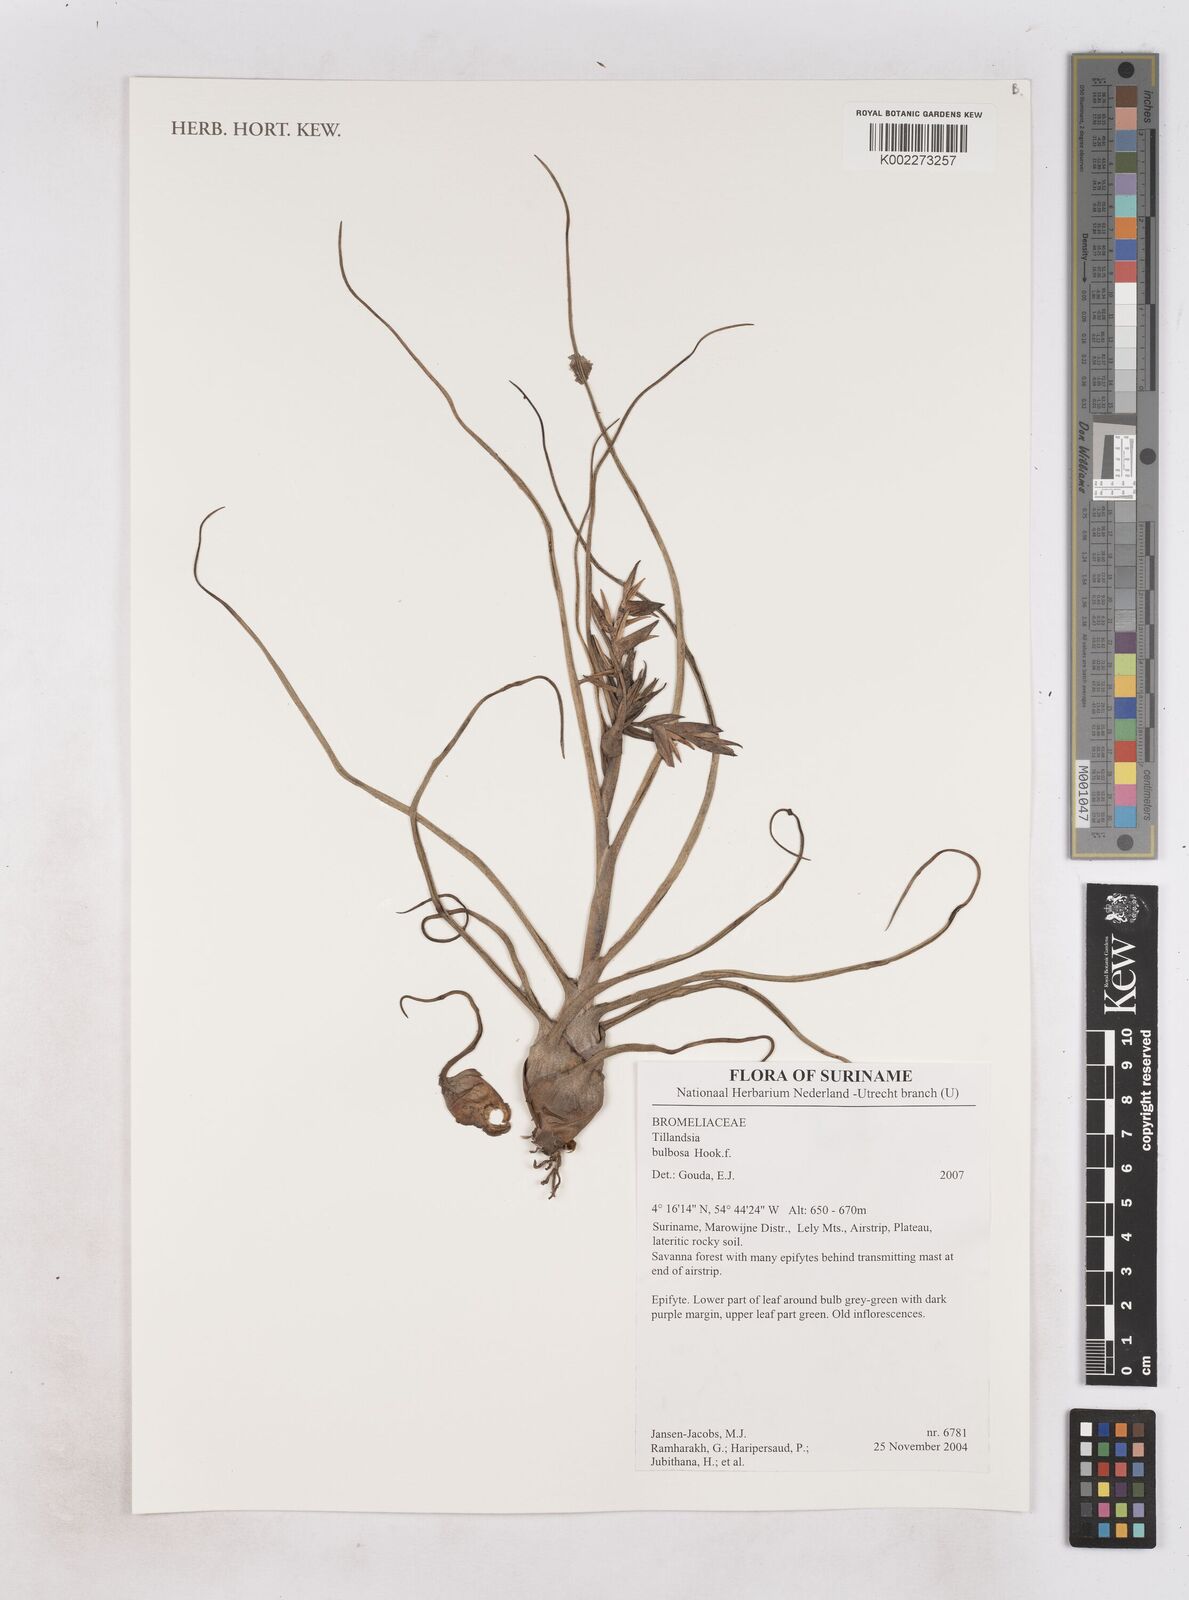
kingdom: Plantae
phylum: Tracheophyta
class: Liliopsida
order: Poales
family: Bromeliaceae
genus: Tillandsia
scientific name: Tillandsia bulbosa
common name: Bulbous airplant
